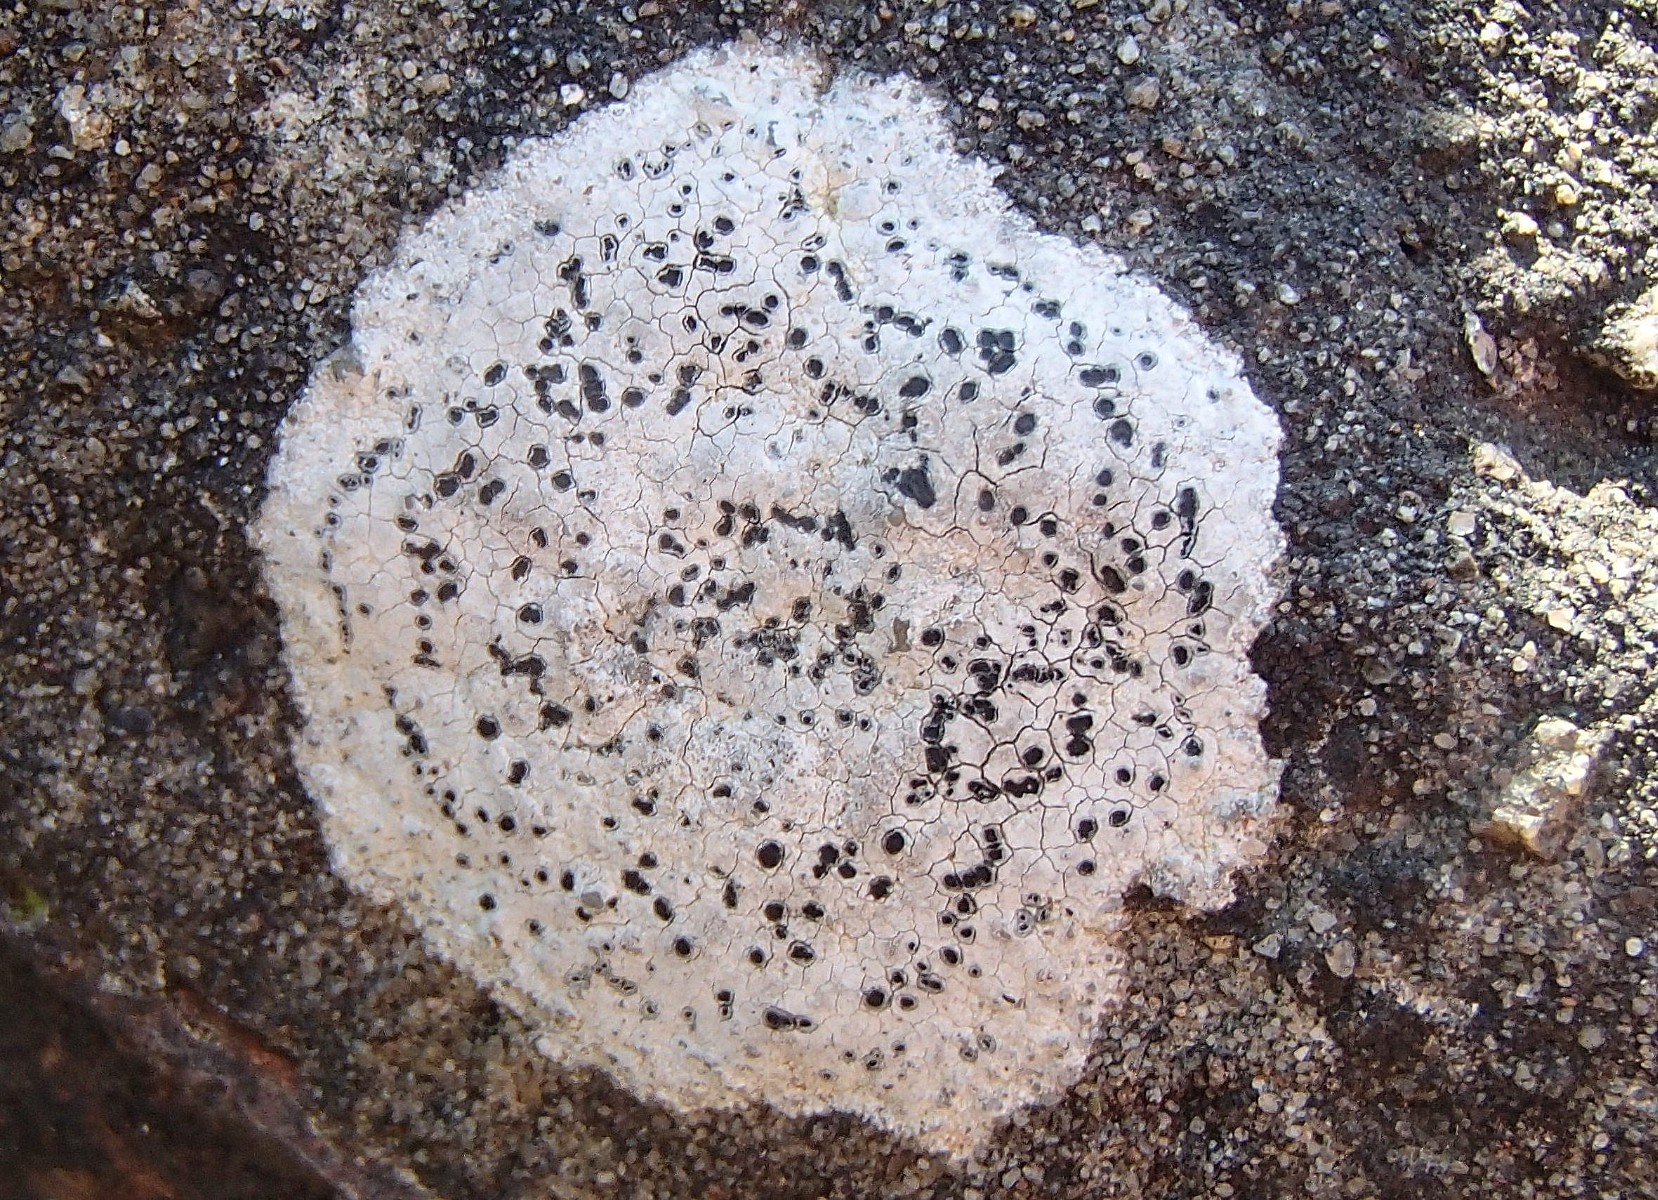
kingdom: Fungi
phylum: Ascomycota
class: Lecanoromycetes
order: Rhizocarpales
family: Rhizocarpaceae
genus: Rhizocarpon
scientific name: Rhizocarpon umbilicatum
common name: kalk-landkortlav
